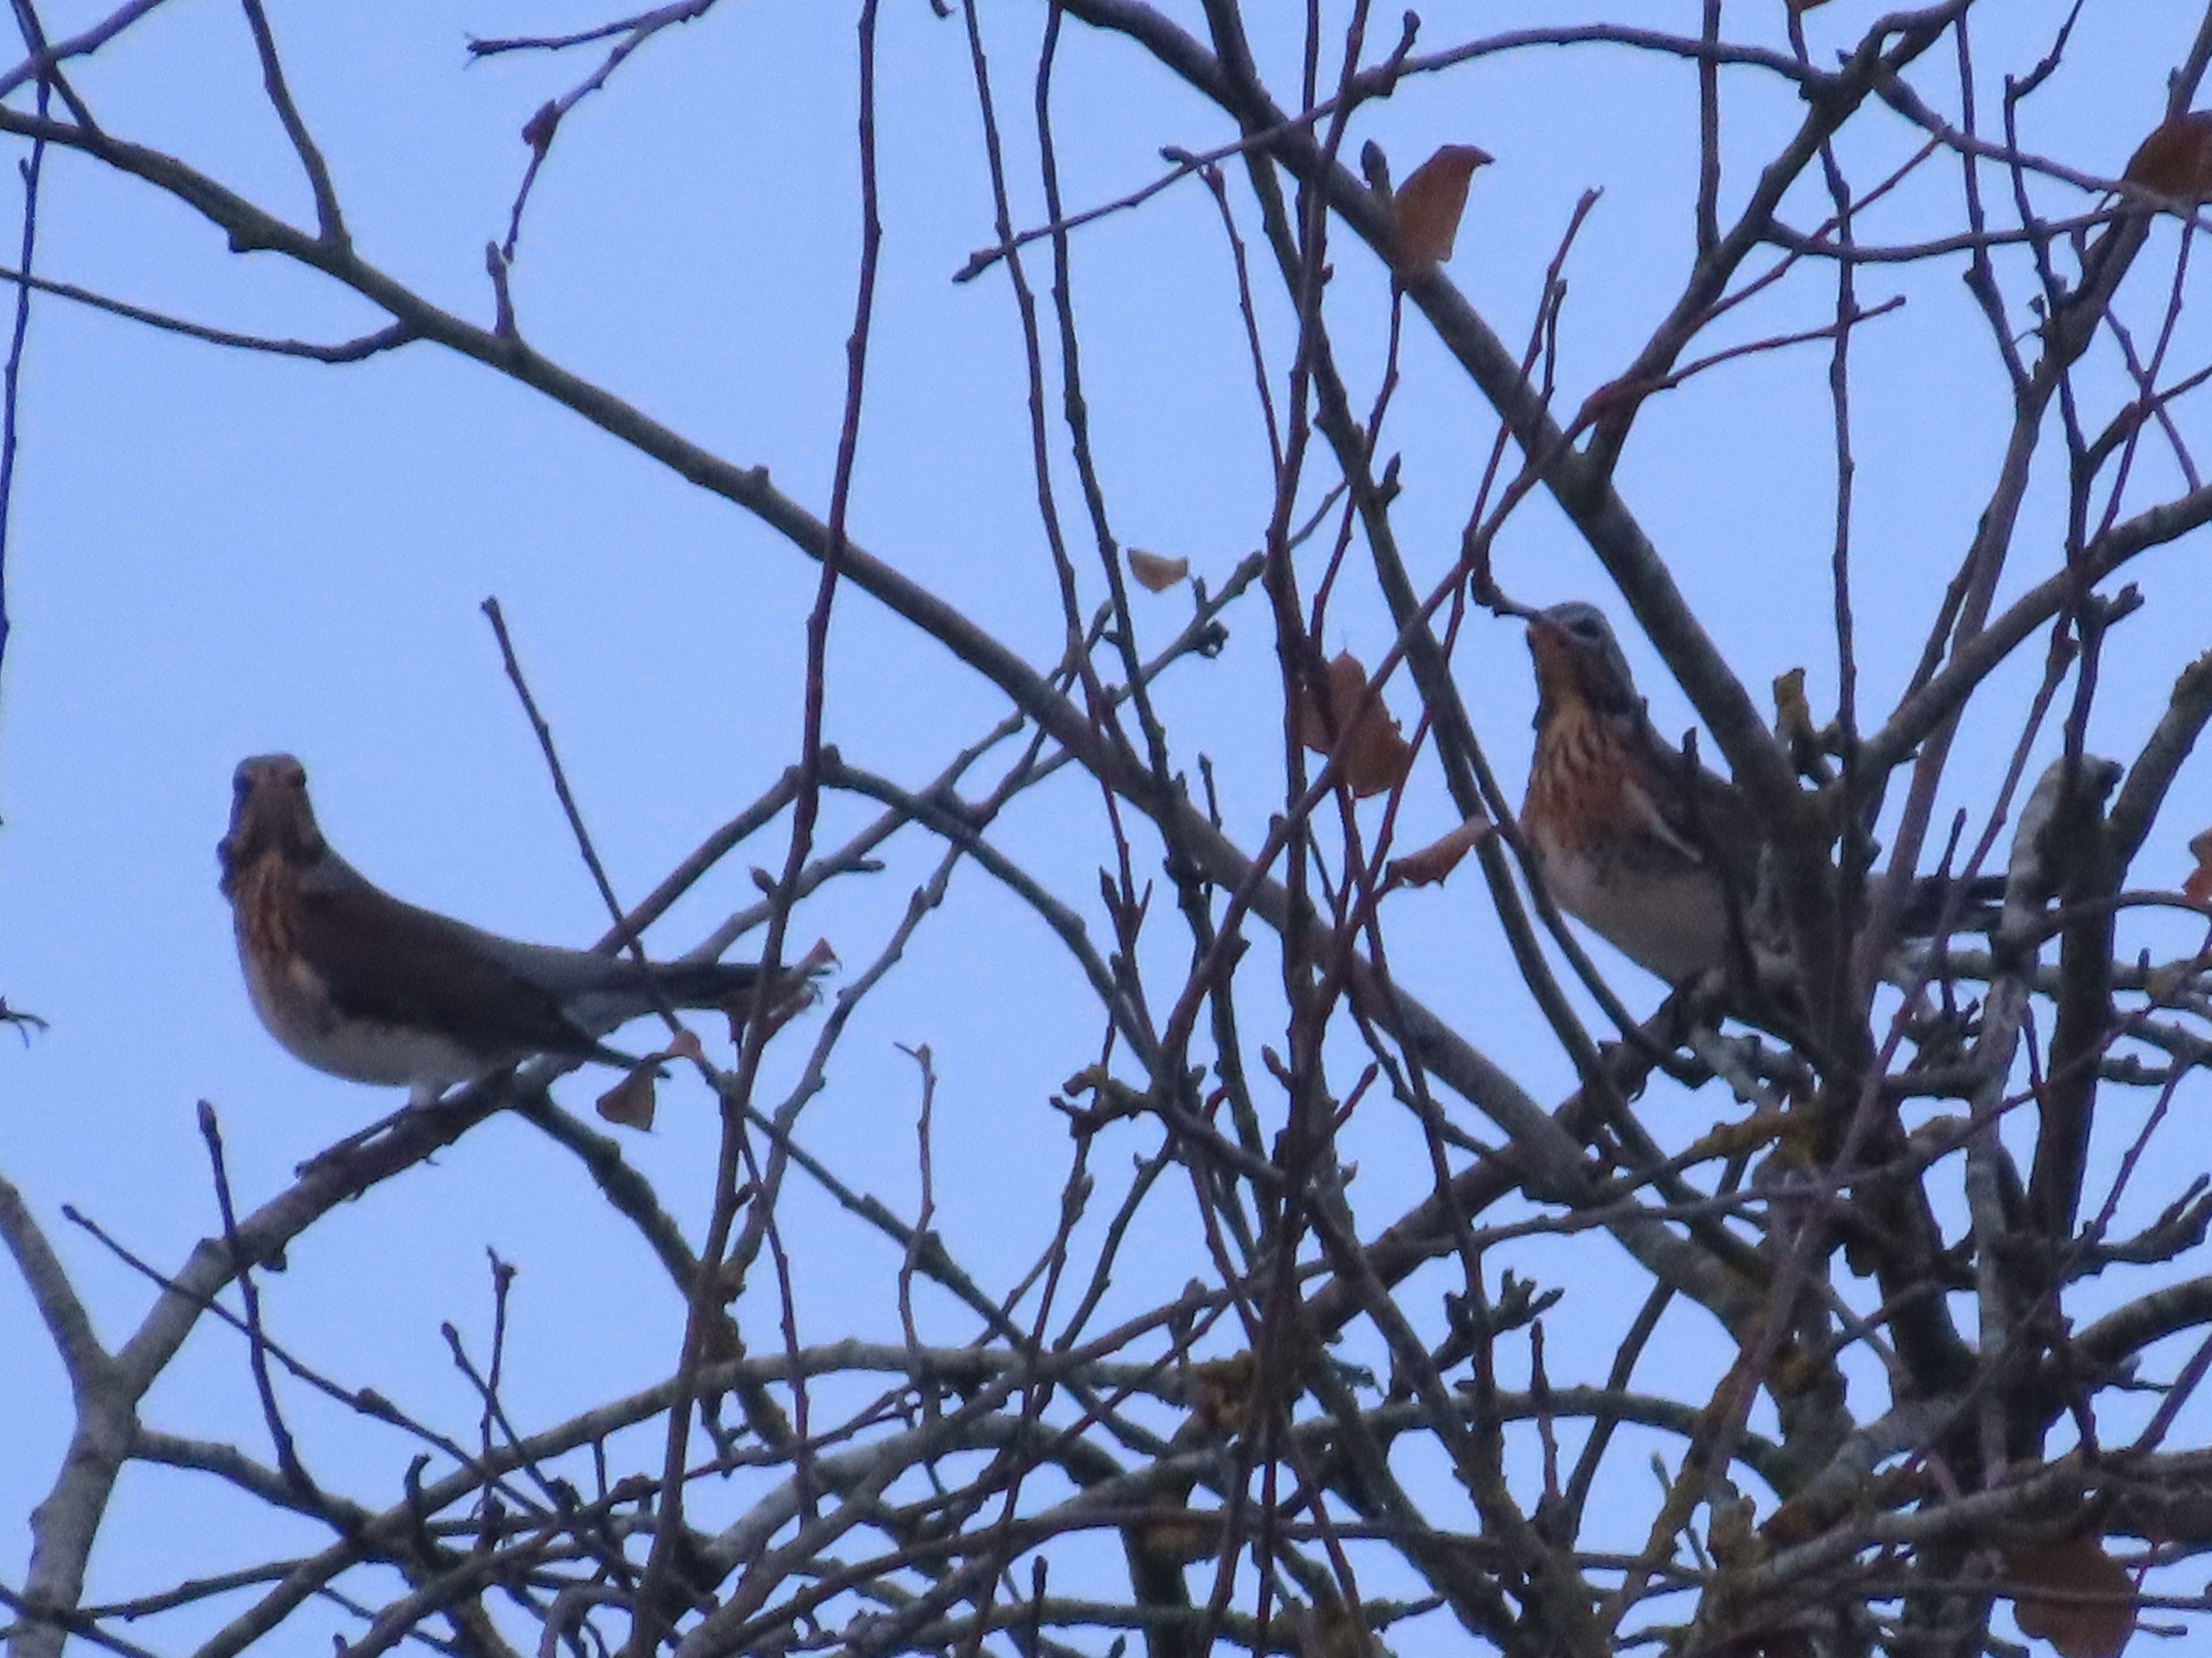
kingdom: Animalia
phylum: Chordata
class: Aves
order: Passeriformes
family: Turdidae
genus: Turdus
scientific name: Turdus pilaris
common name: Sjagger
